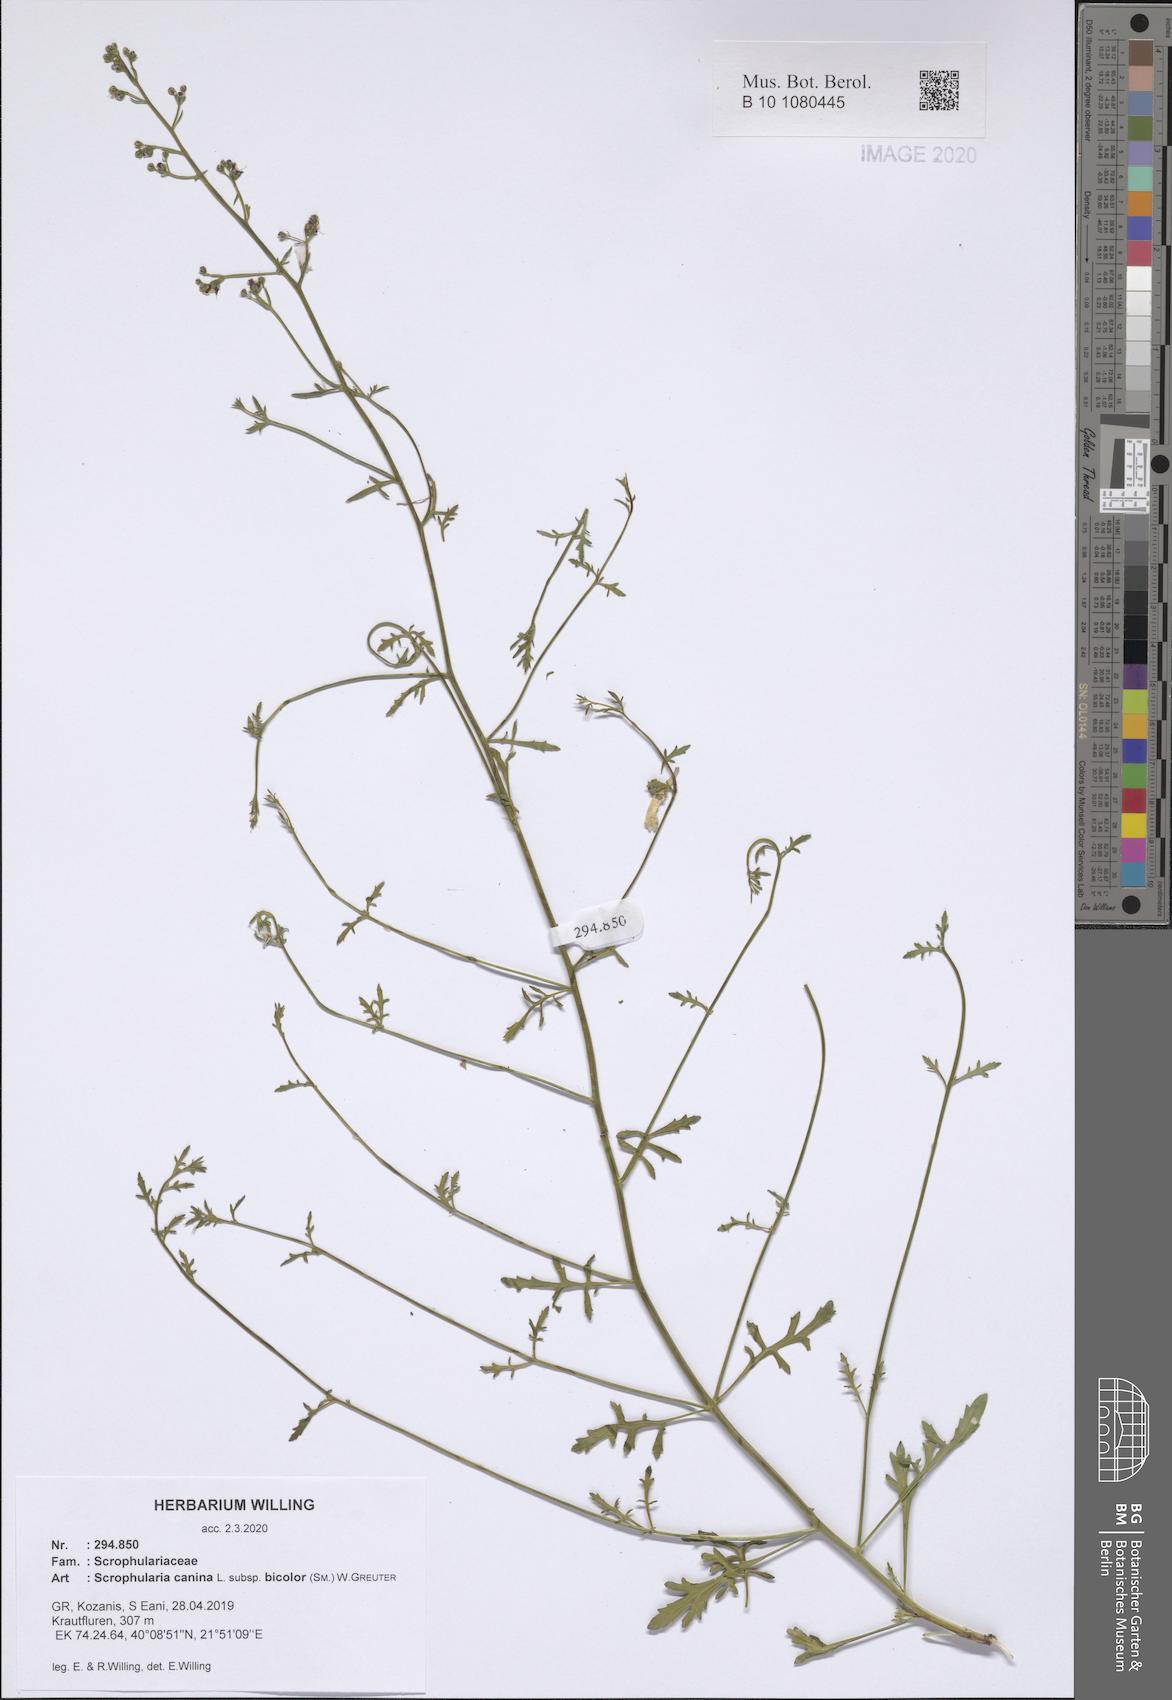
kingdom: Plantae
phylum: Tracheophyta
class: Magnoliopsida
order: Lamiales
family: Scrophulariaceae
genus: Scrophularia
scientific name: Scrophularia canina
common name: French figwort
